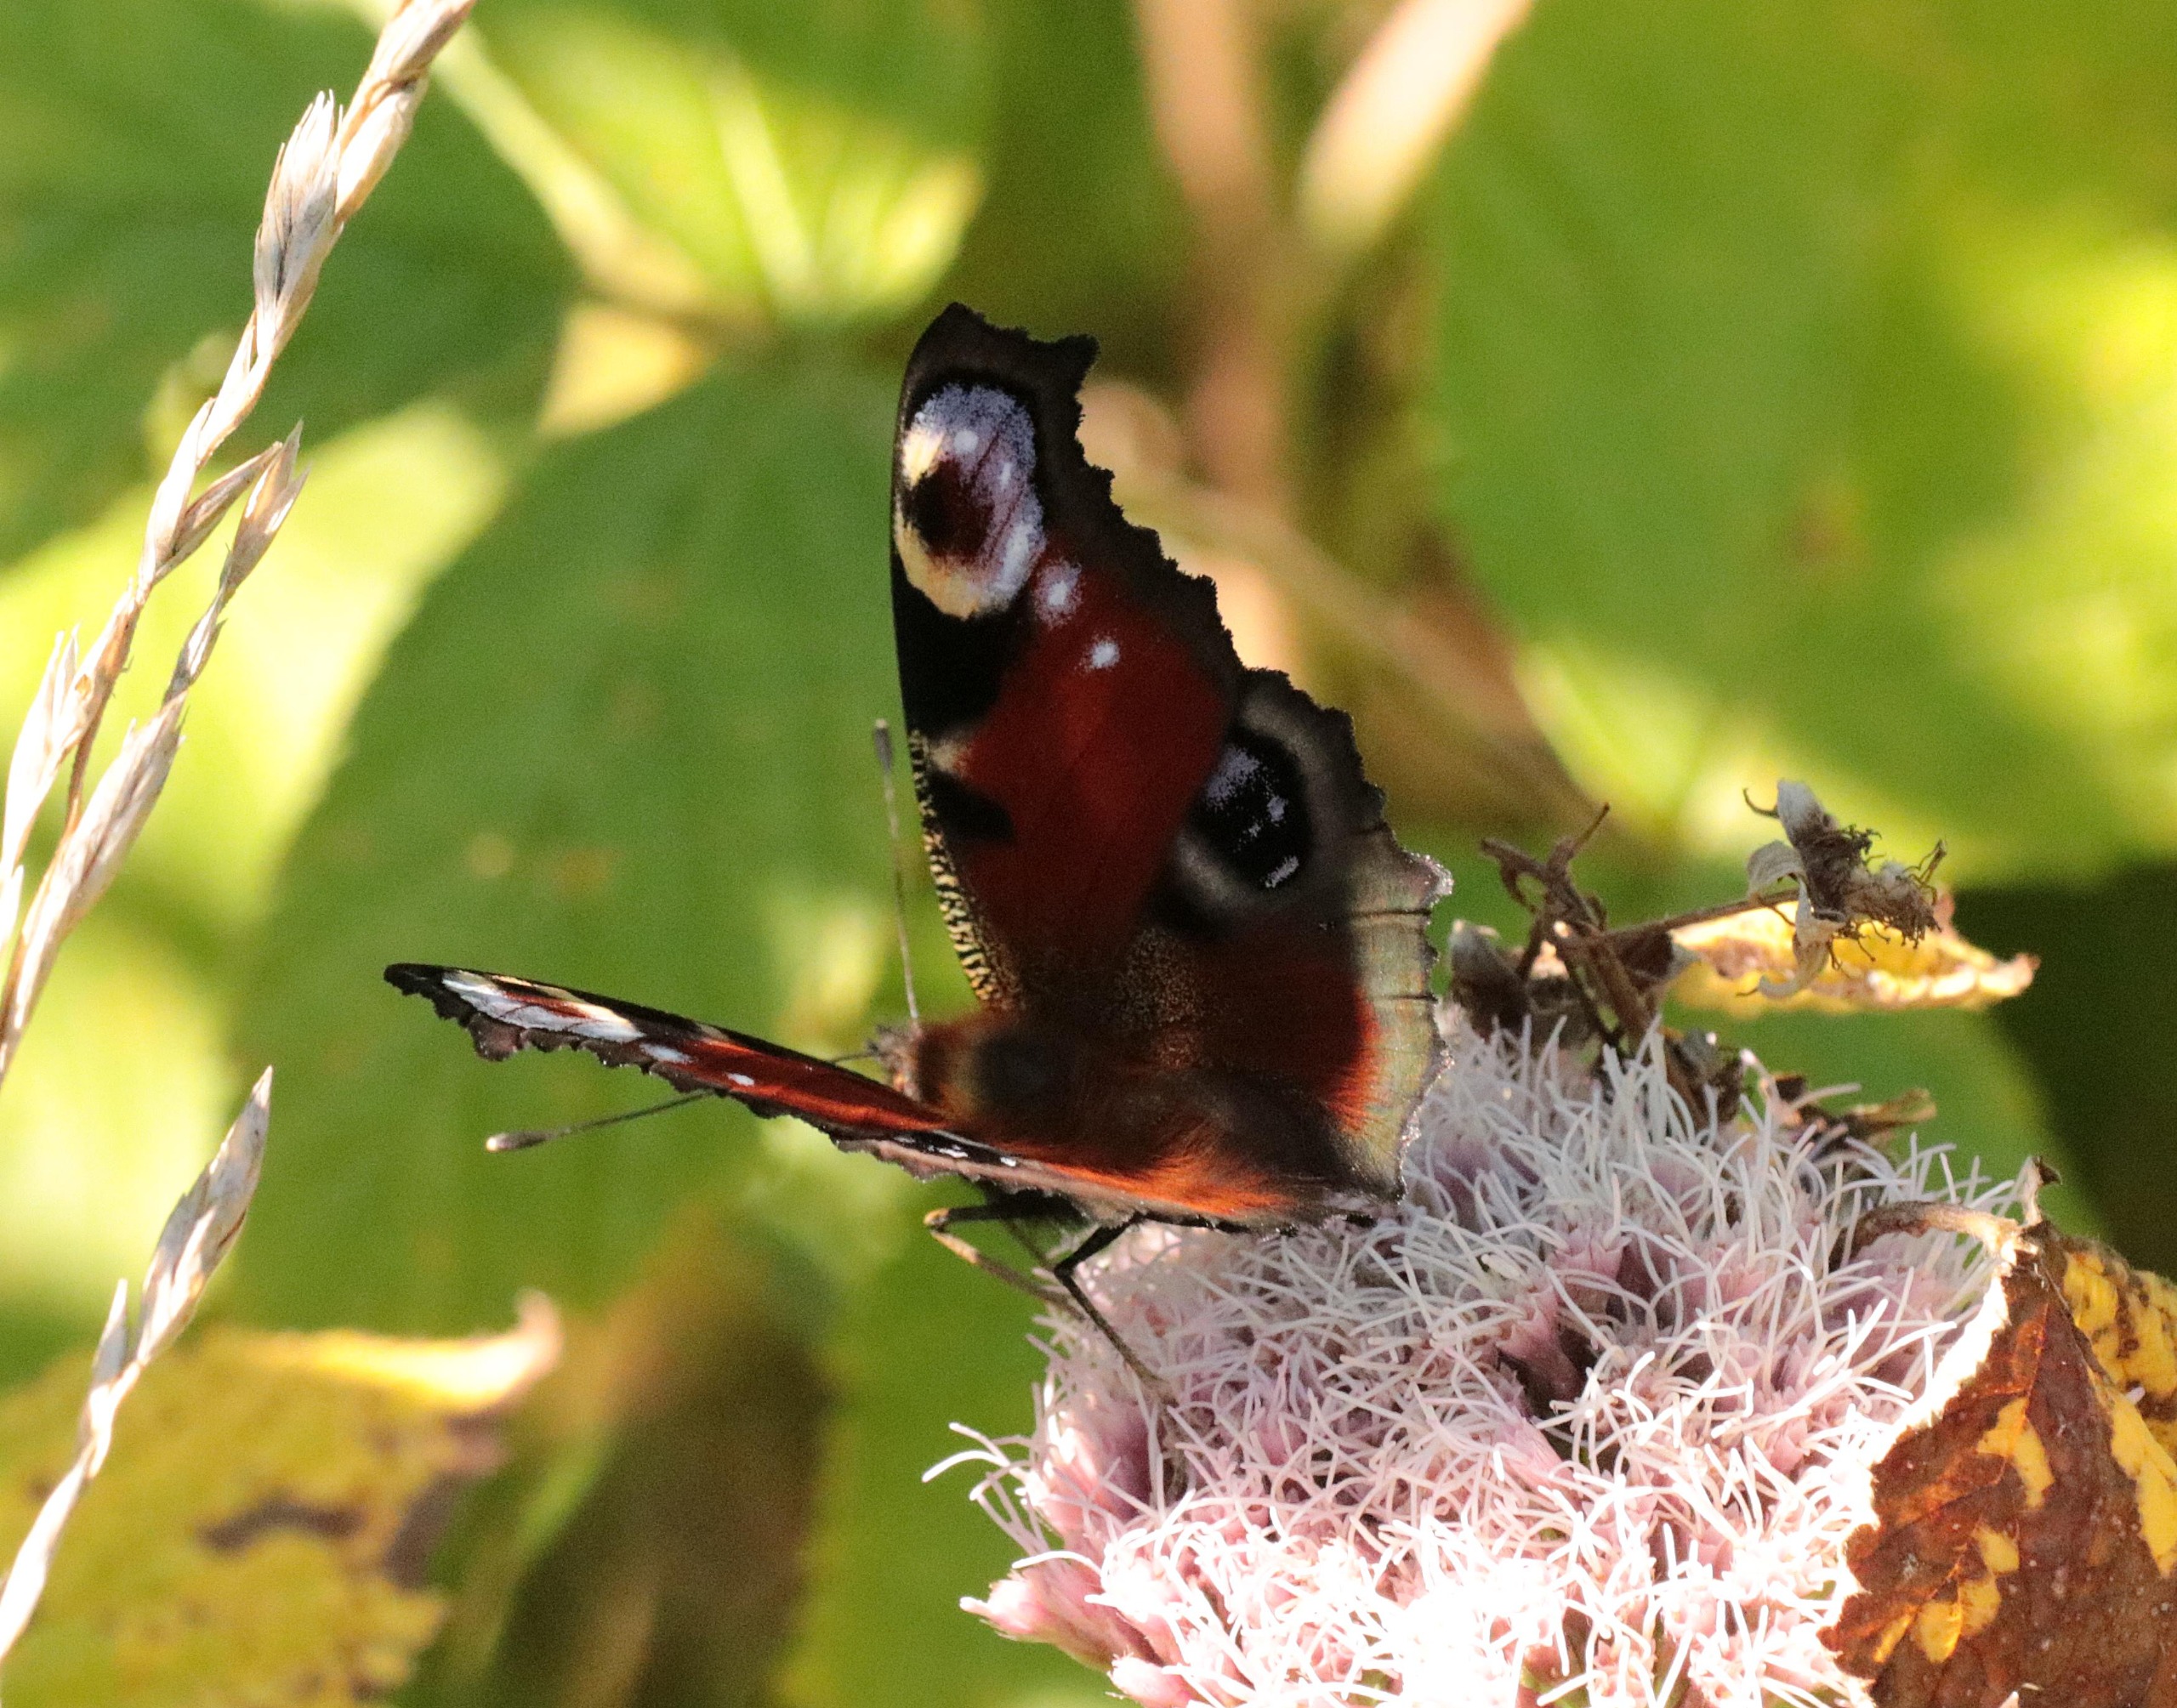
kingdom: Animalia
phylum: Arthropoda
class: Insecta
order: Lepidoptera
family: Nymphalidae
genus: Aglais
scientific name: Aglais io
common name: Dagpåfugleøje
